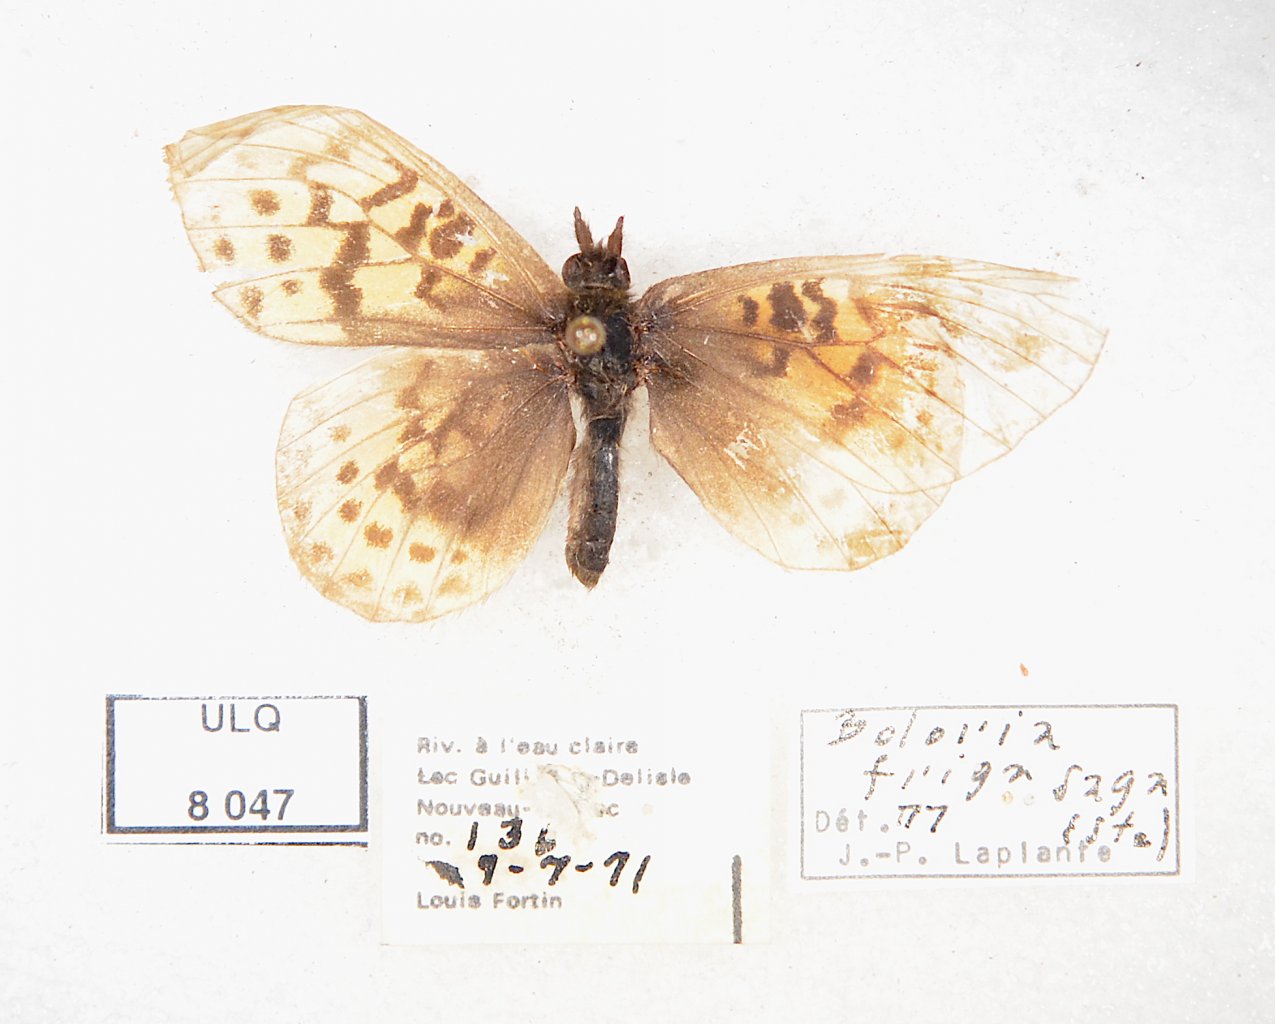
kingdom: Animalia
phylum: Arthropoda
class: Insecta
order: Lepidoptera
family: Nymphalidae
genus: Clossiana
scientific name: Clossiana toddi
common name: Meadow Fritillary
